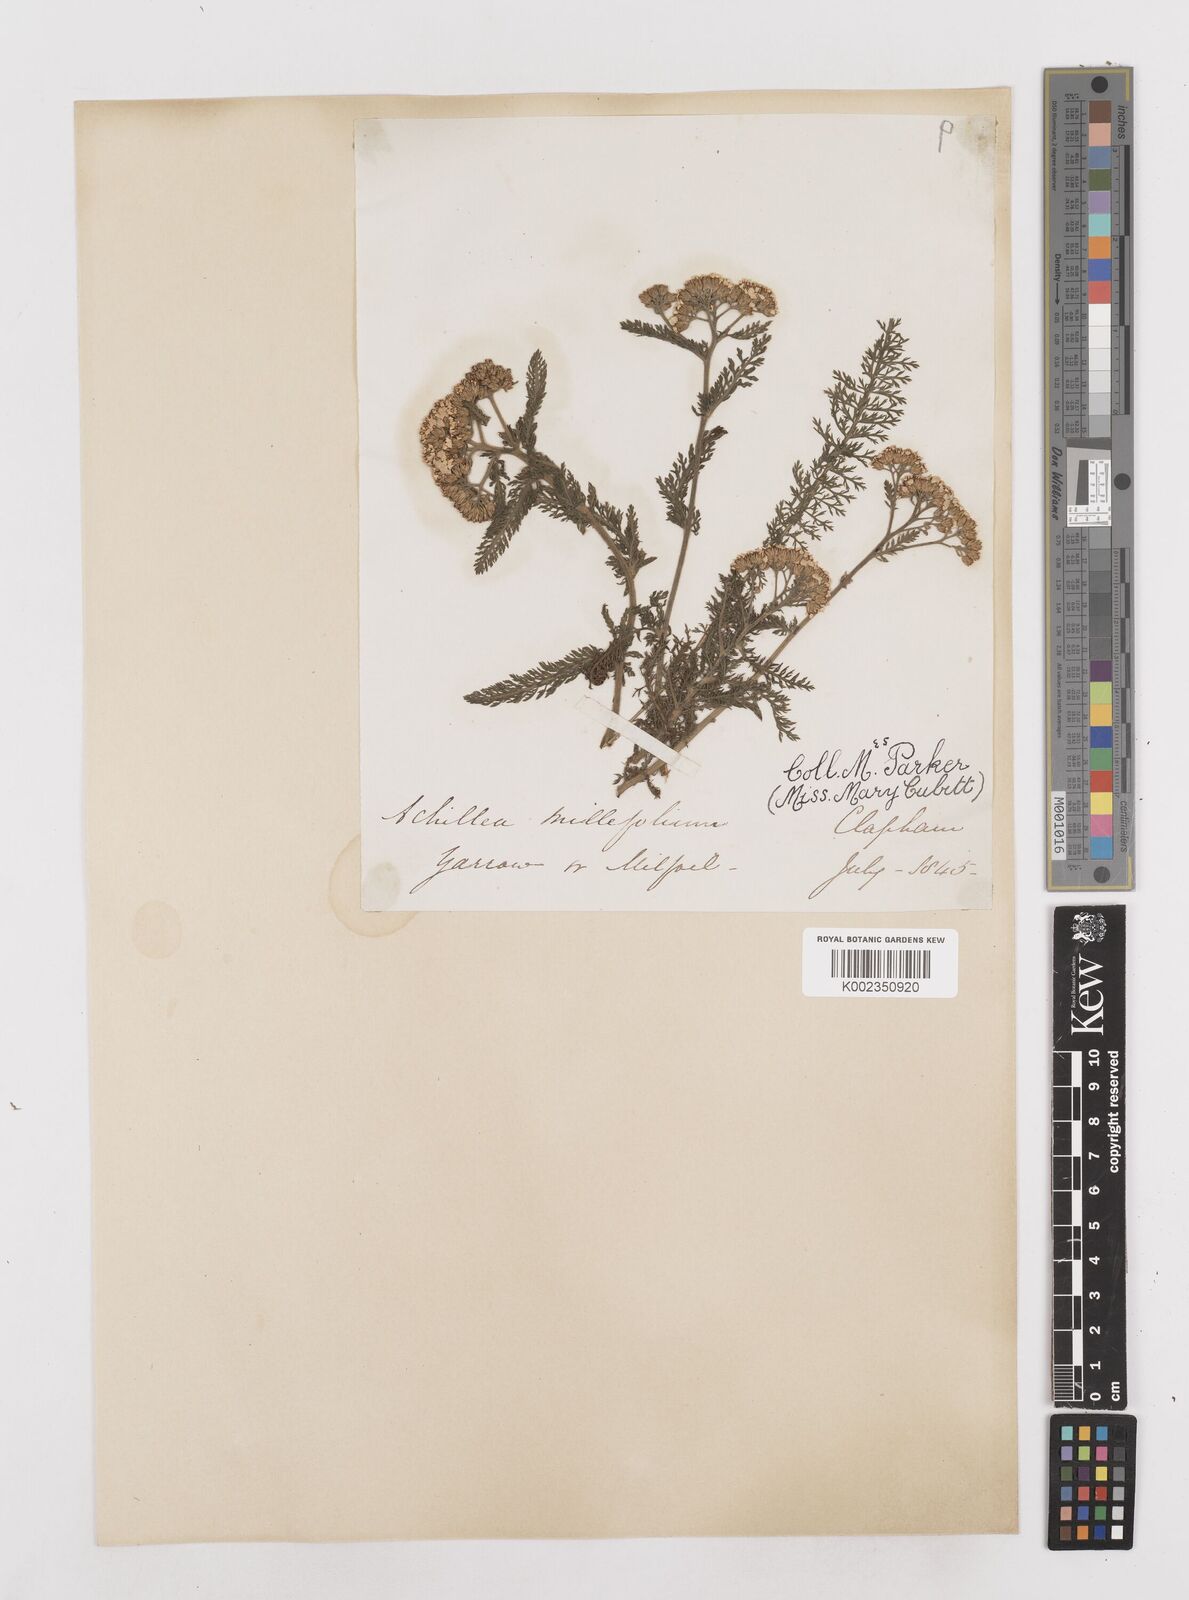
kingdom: Plantae
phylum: Tracheophyta
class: Magnoliopsida
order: Asterales
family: Asteraceae
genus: Achillea
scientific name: Achillea millefolium
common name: Yarrow
